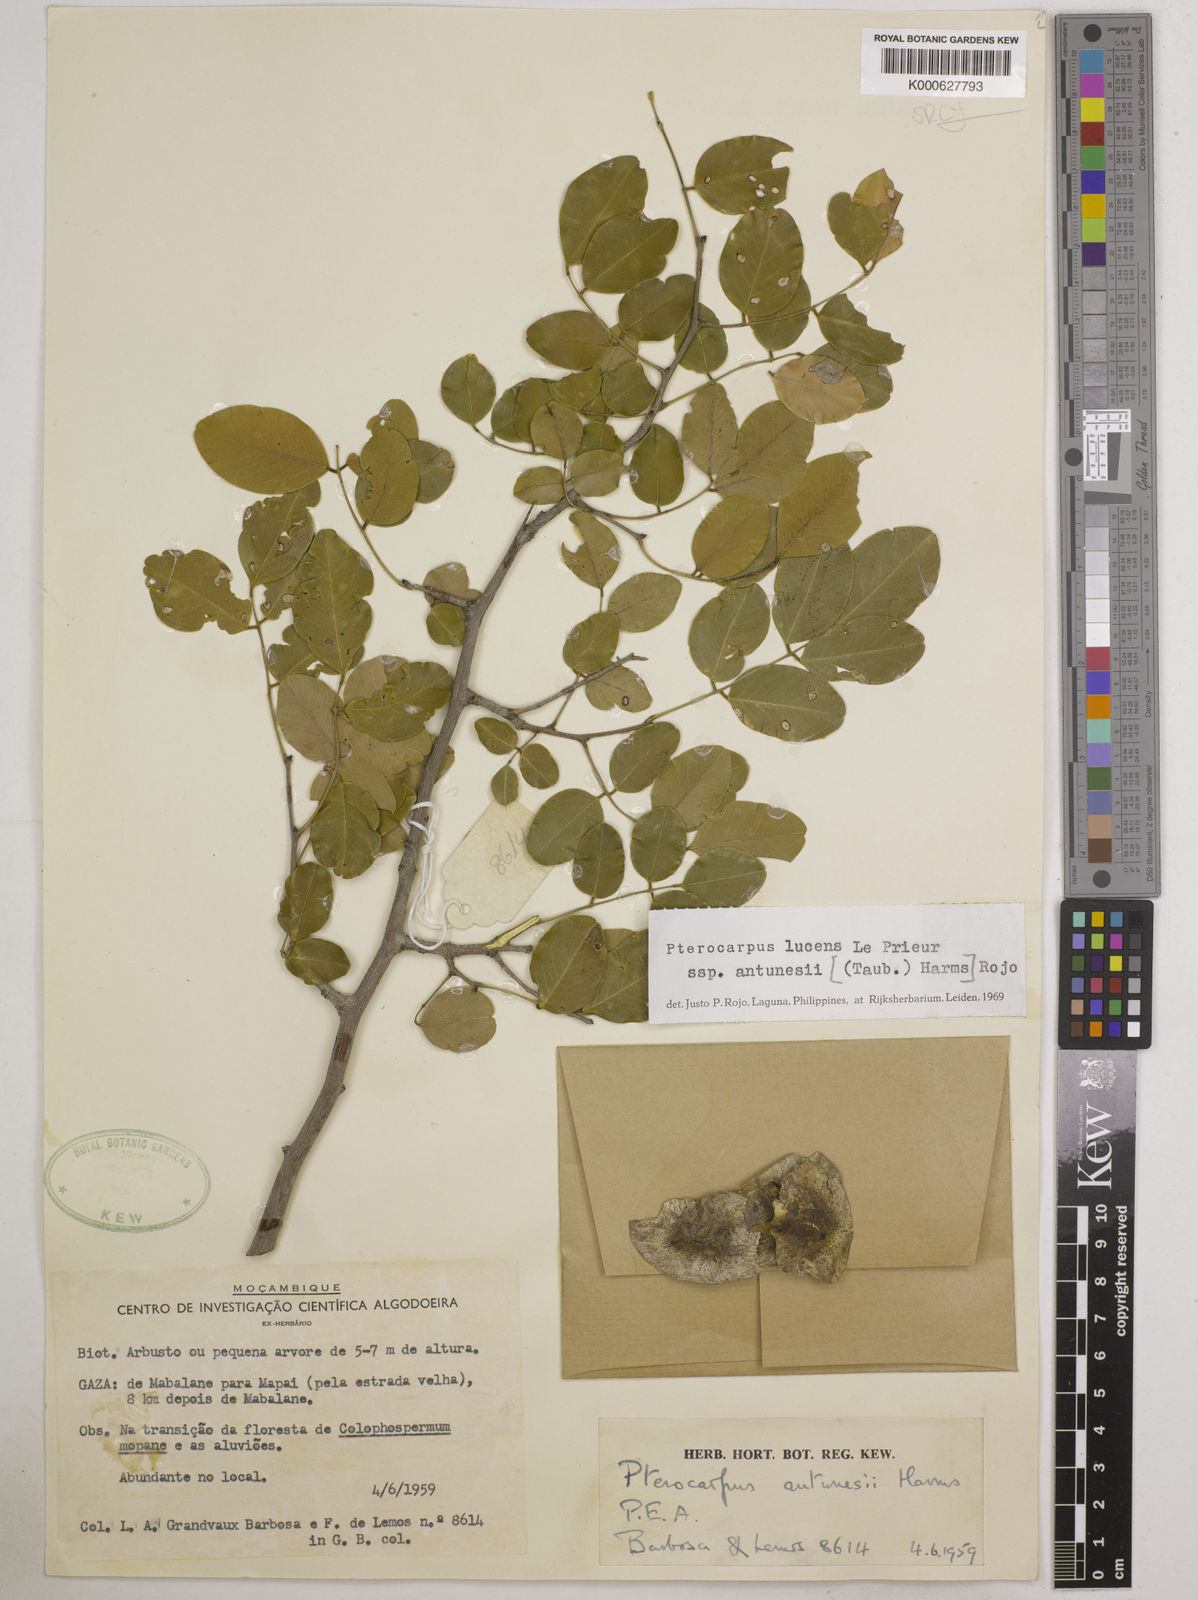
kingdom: Plantae
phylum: Tracheophyta
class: Magnoliopsida
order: Fabales
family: Fabaceae
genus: Pterocarpus
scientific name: Pterocarpus lucens
